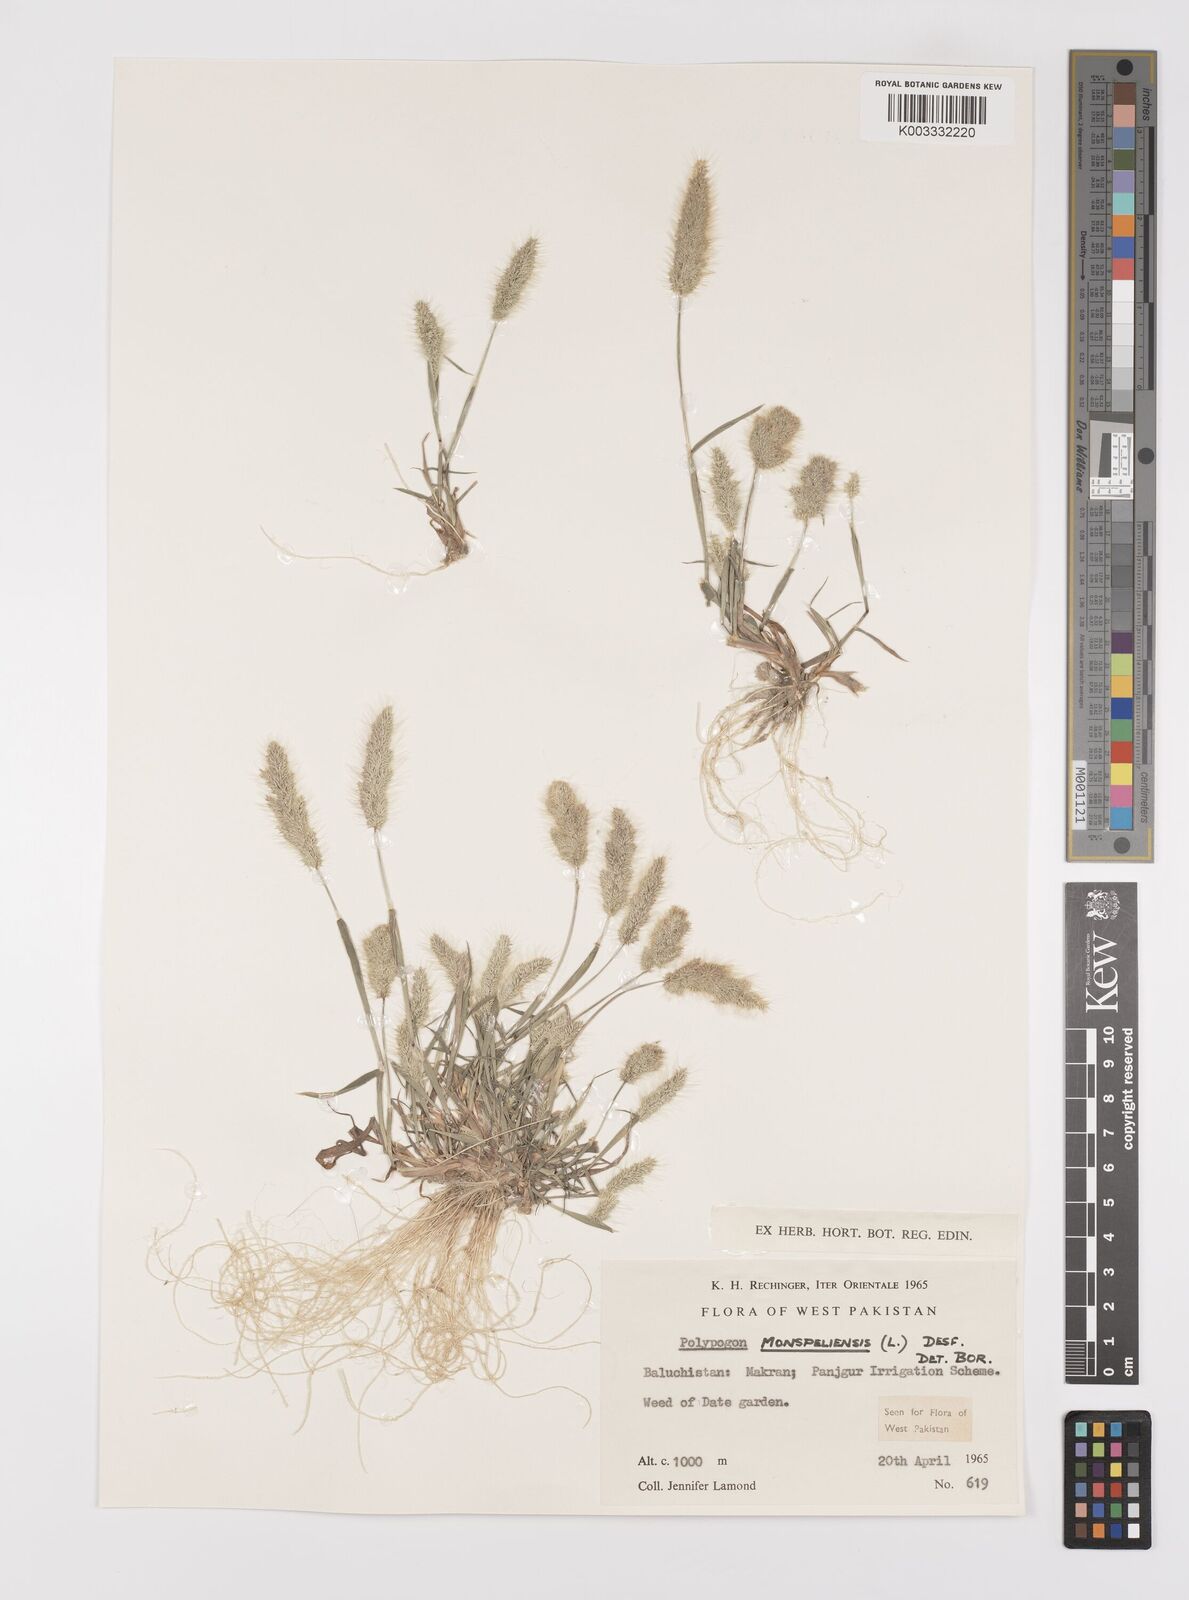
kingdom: Plantae
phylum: Tracheophyta
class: Liliopsida
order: Poales
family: Poaceae
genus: Polypogon
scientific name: Polypogon monspeliensis
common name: Annual rabbitsfoot grass
